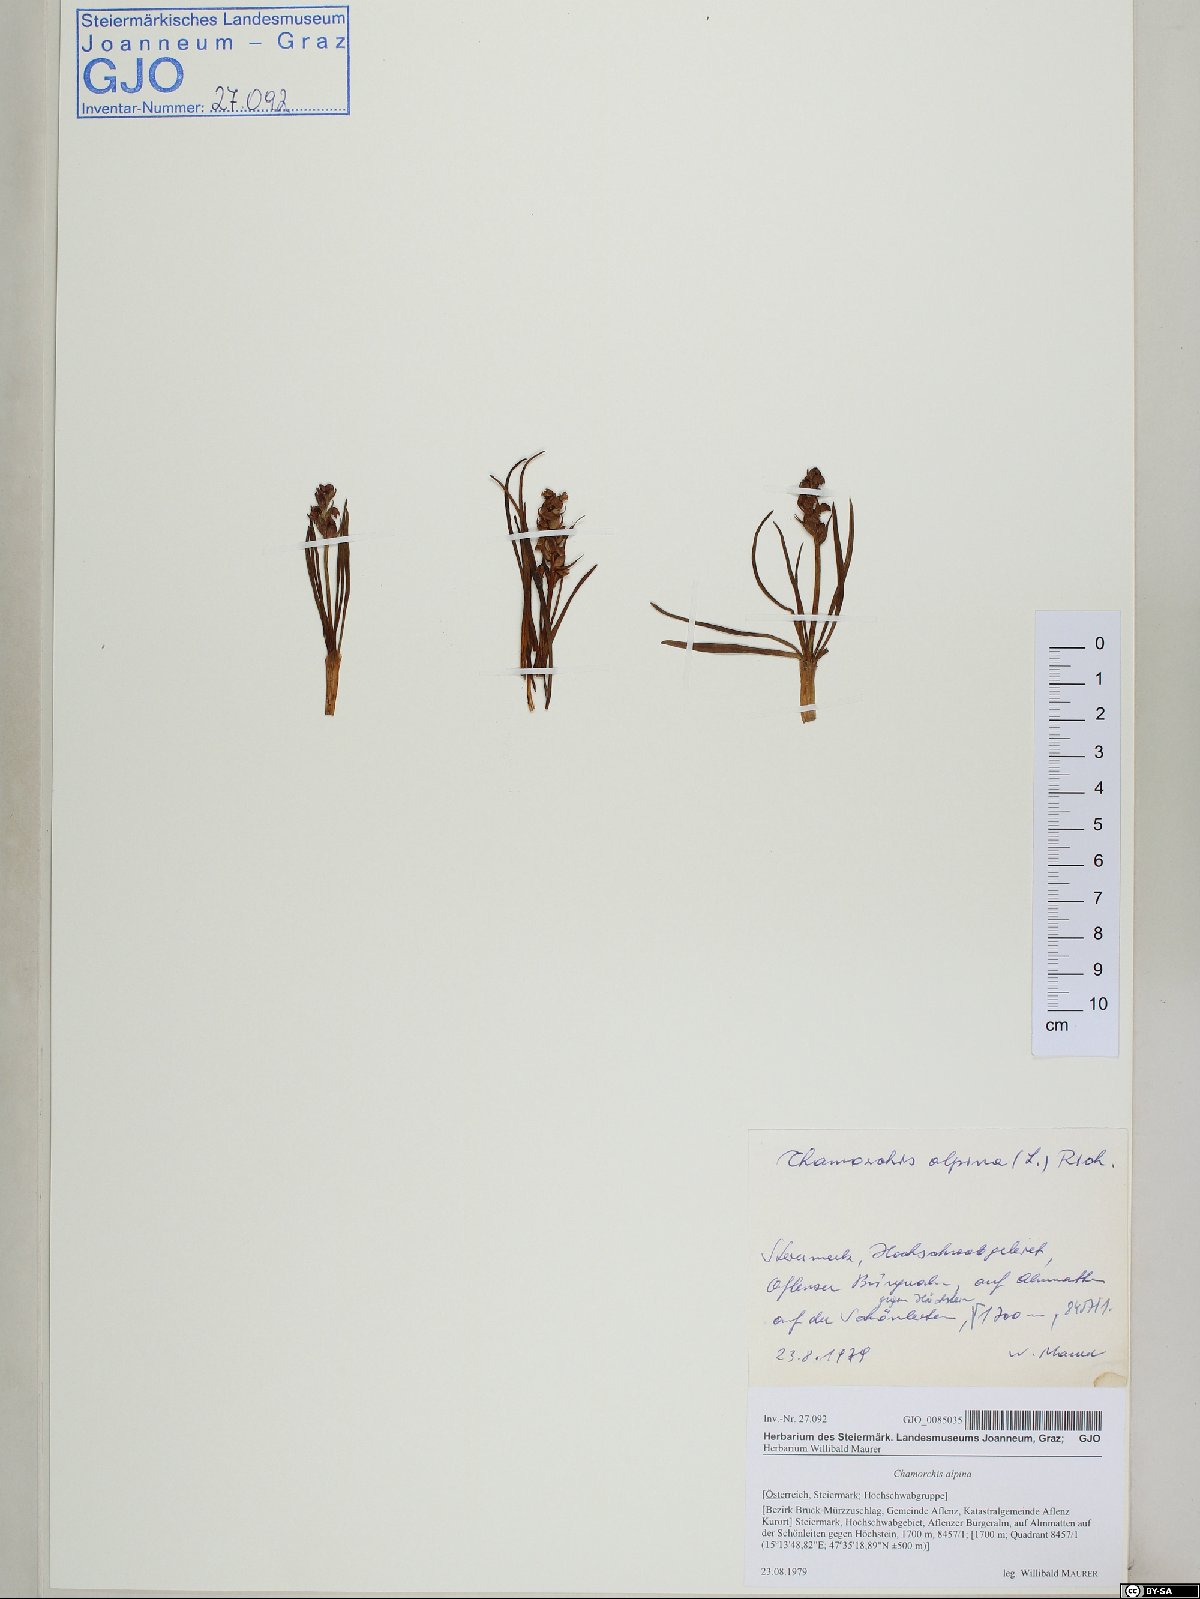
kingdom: Plantae
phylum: Tracheophyta
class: Liliopsida
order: Asparagales
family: Orchidaceae
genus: Chamorchis
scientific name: Chamorchis alpina
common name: Alpine chamorchis
